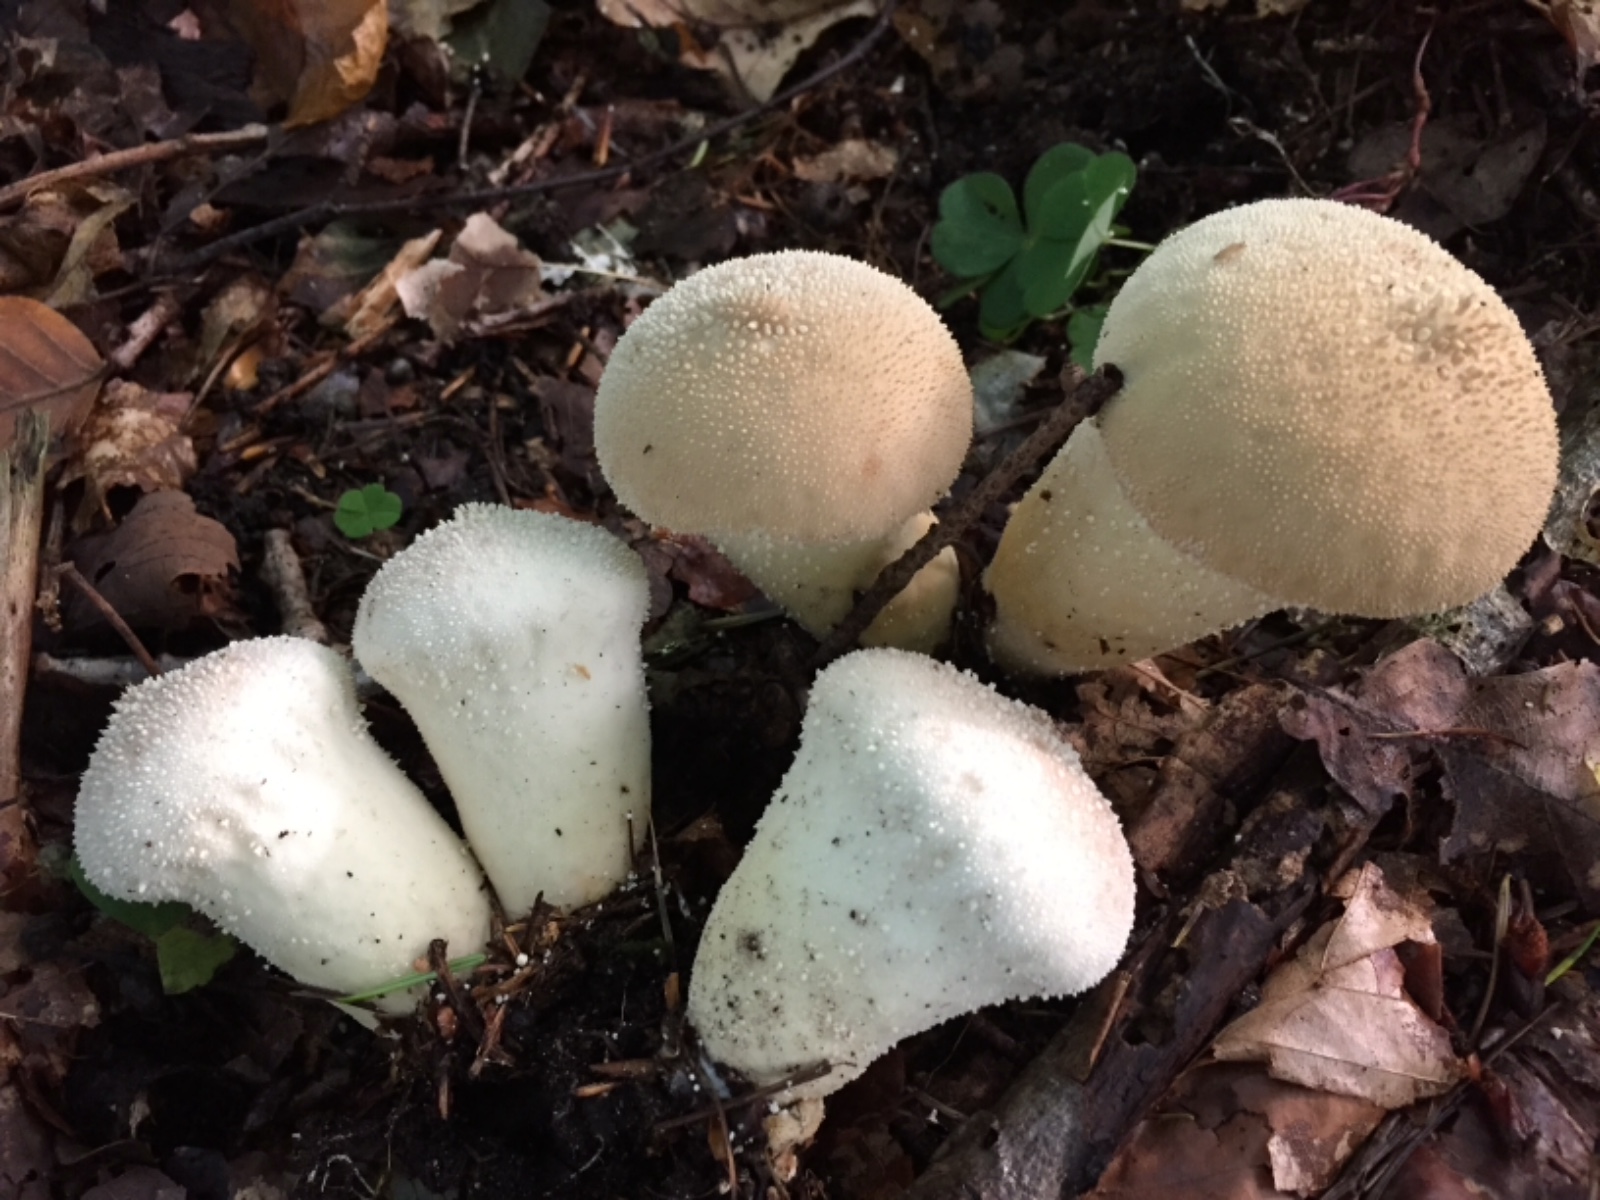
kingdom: Fungi
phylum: Basidiomycota
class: Agaricomycetes
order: Agaricales
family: Lycoperdaceae
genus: Lycoperdon
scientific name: Lycoperdon perlatum
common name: krystal-støvbold
